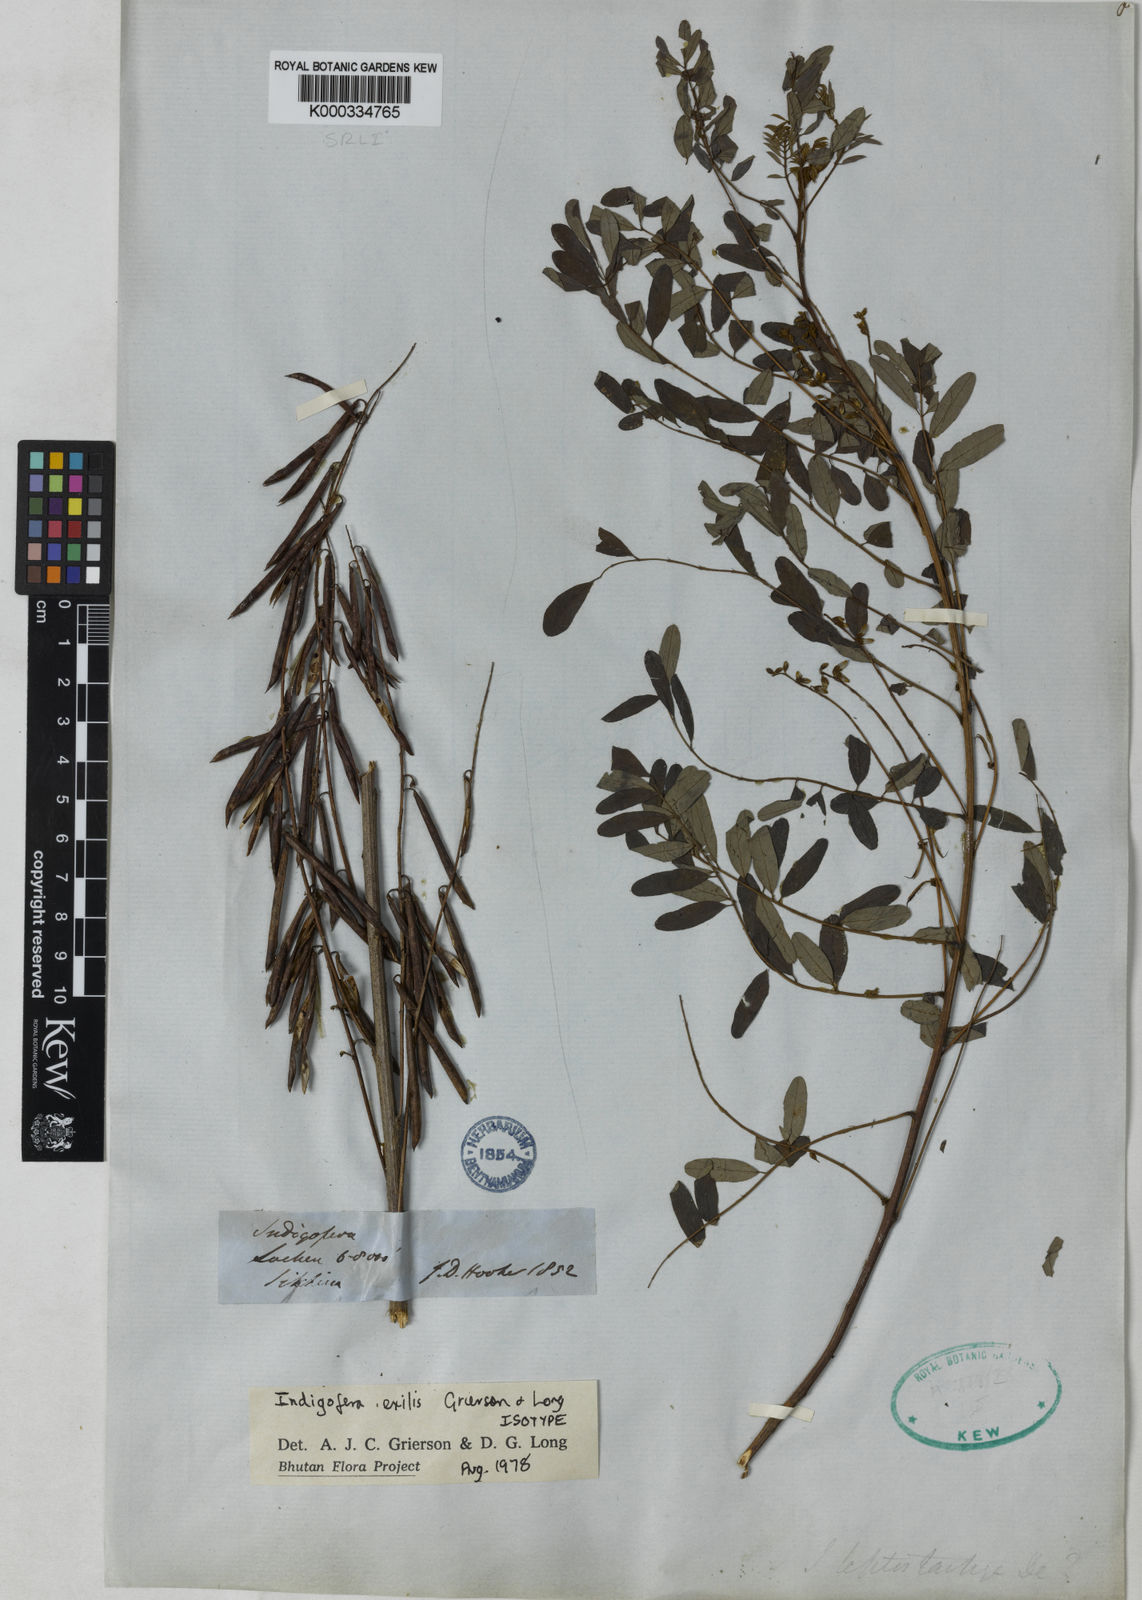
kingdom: Plantae
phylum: Tracheophyta
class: Magnoliopsida
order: Fabales
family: Fabaceae
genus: Indigofera
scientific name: Indigofera exilis
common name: Slender indigo
